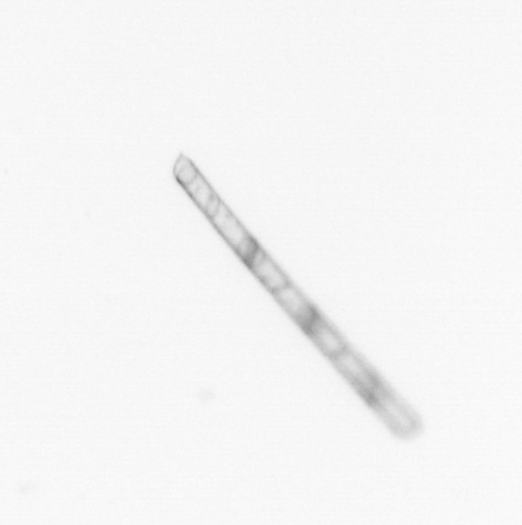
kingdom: Chromista
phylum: Ochrophyta
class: Bacillariophyceae
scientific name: Bacillariophyceae
